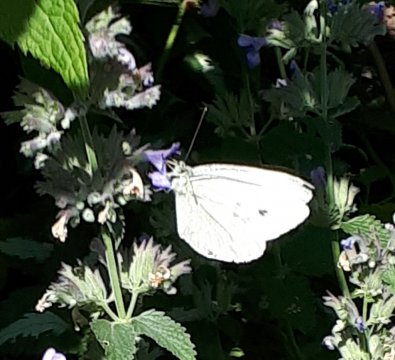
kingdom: Animalia
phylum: Arthropoda
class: Insecta
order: Lepidoptera
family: Pieridae
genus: Pieris
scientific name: Pieris rapae
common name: Cabbage White
